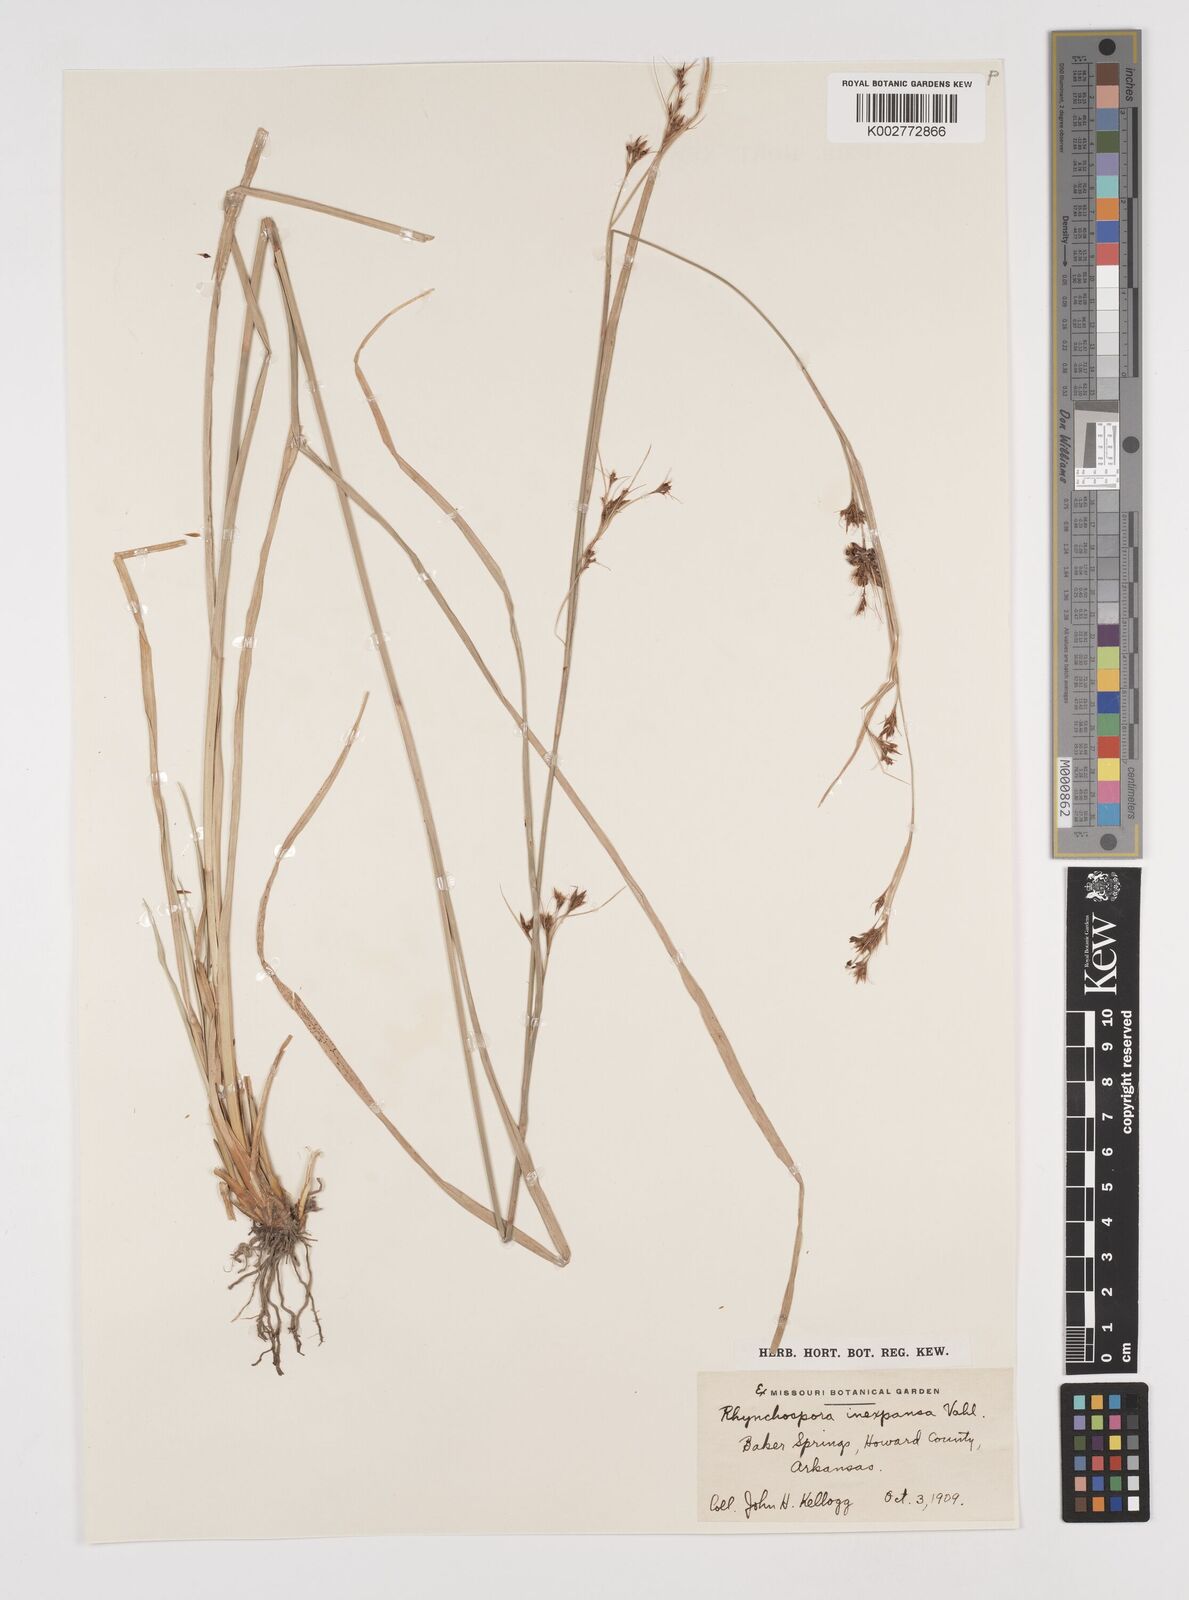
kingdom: Plantae
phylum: Tracheophyta
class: Liliopsida
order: Poales
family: Cyperaceae
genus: Rhynchospora
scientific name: Rhynchospora inexpansa
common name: Nodding beaksedge
